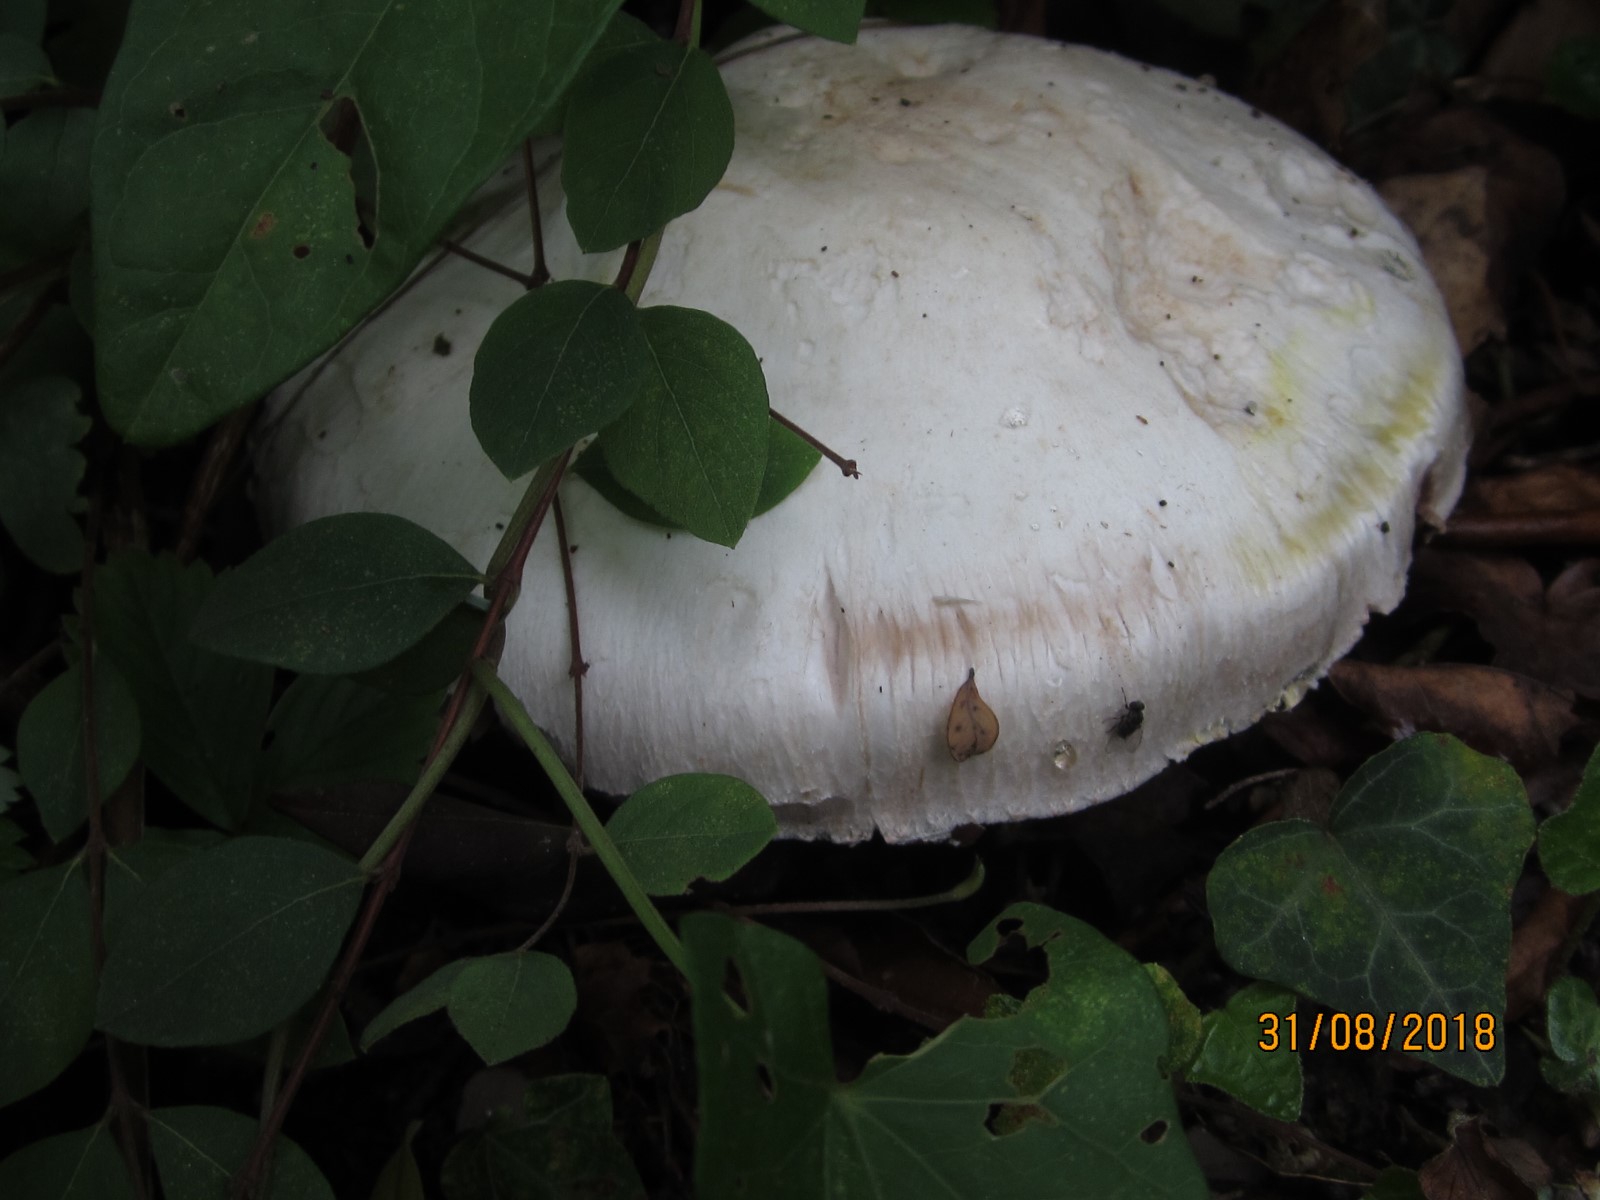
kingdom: Fungi
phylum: Basidiomycota
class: Agaricomycetes
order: Agaricales
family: Agaricaceae
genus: Agaricus
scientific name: Agaricus xanthodermus
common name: karbol-champignon
